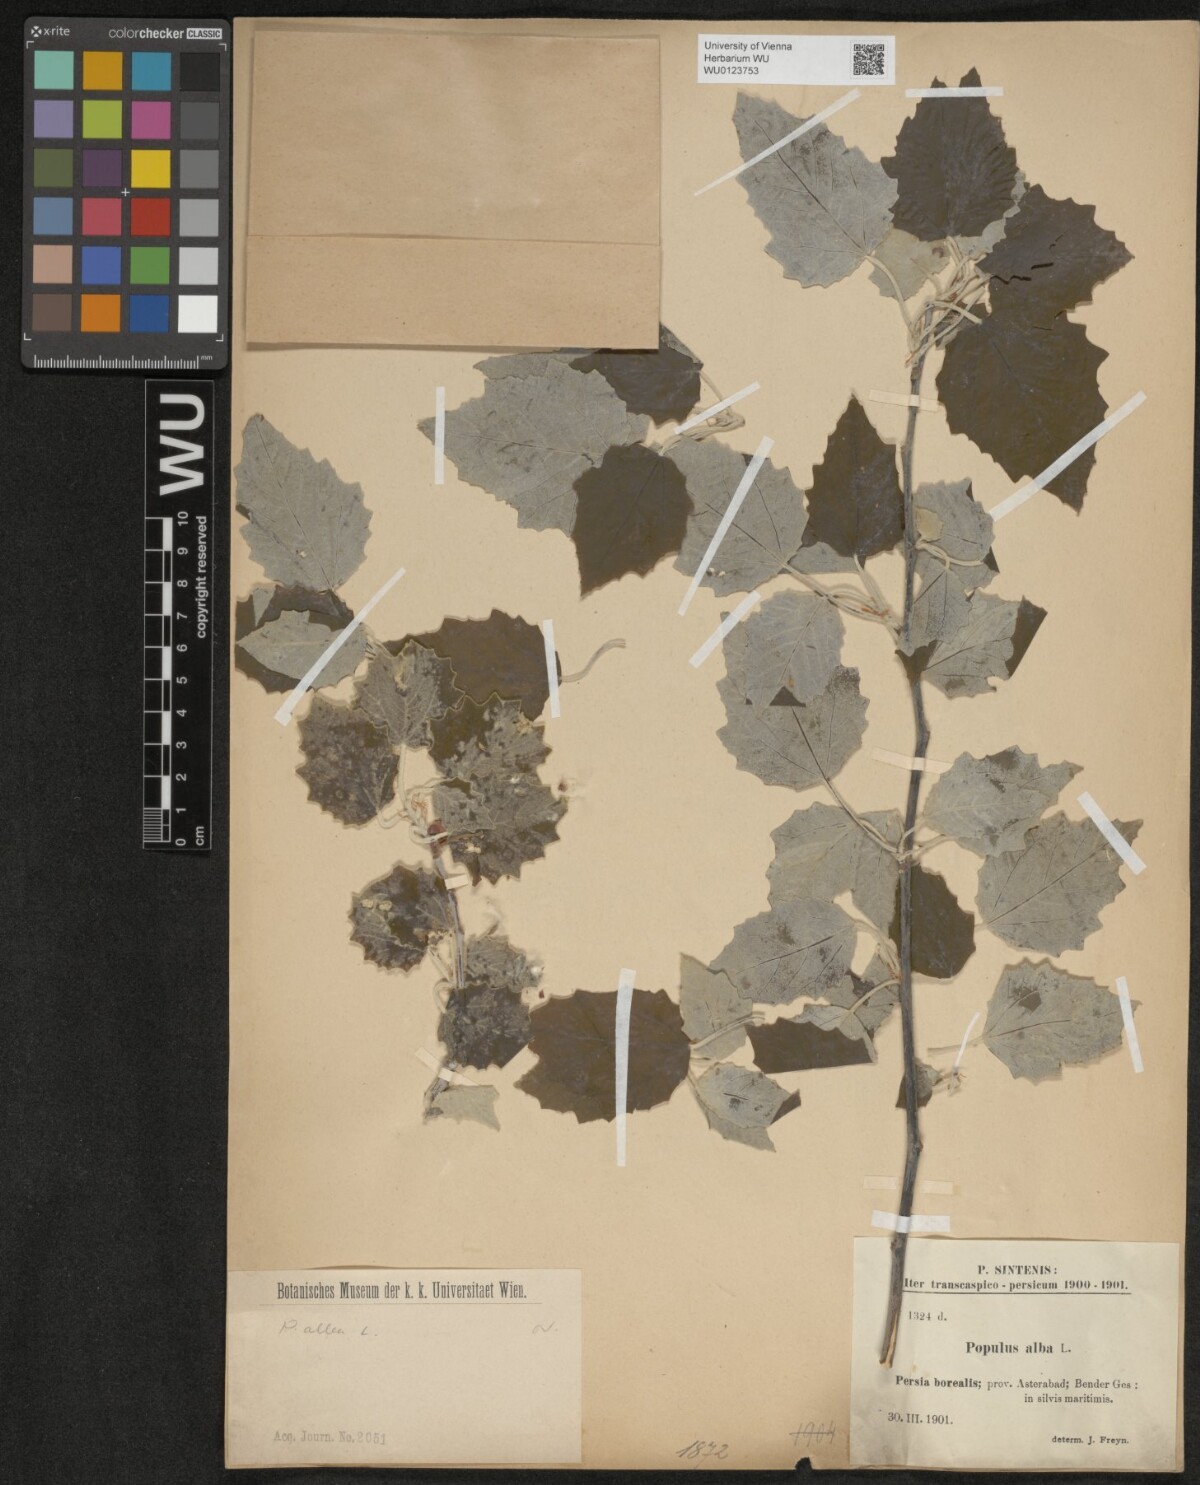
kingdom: Plantae
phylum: Tracheophyta
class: Magnoliopsida
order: Malpighiales
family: Salicaceae
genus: Populus
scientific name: Populus alba
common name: White poplar
